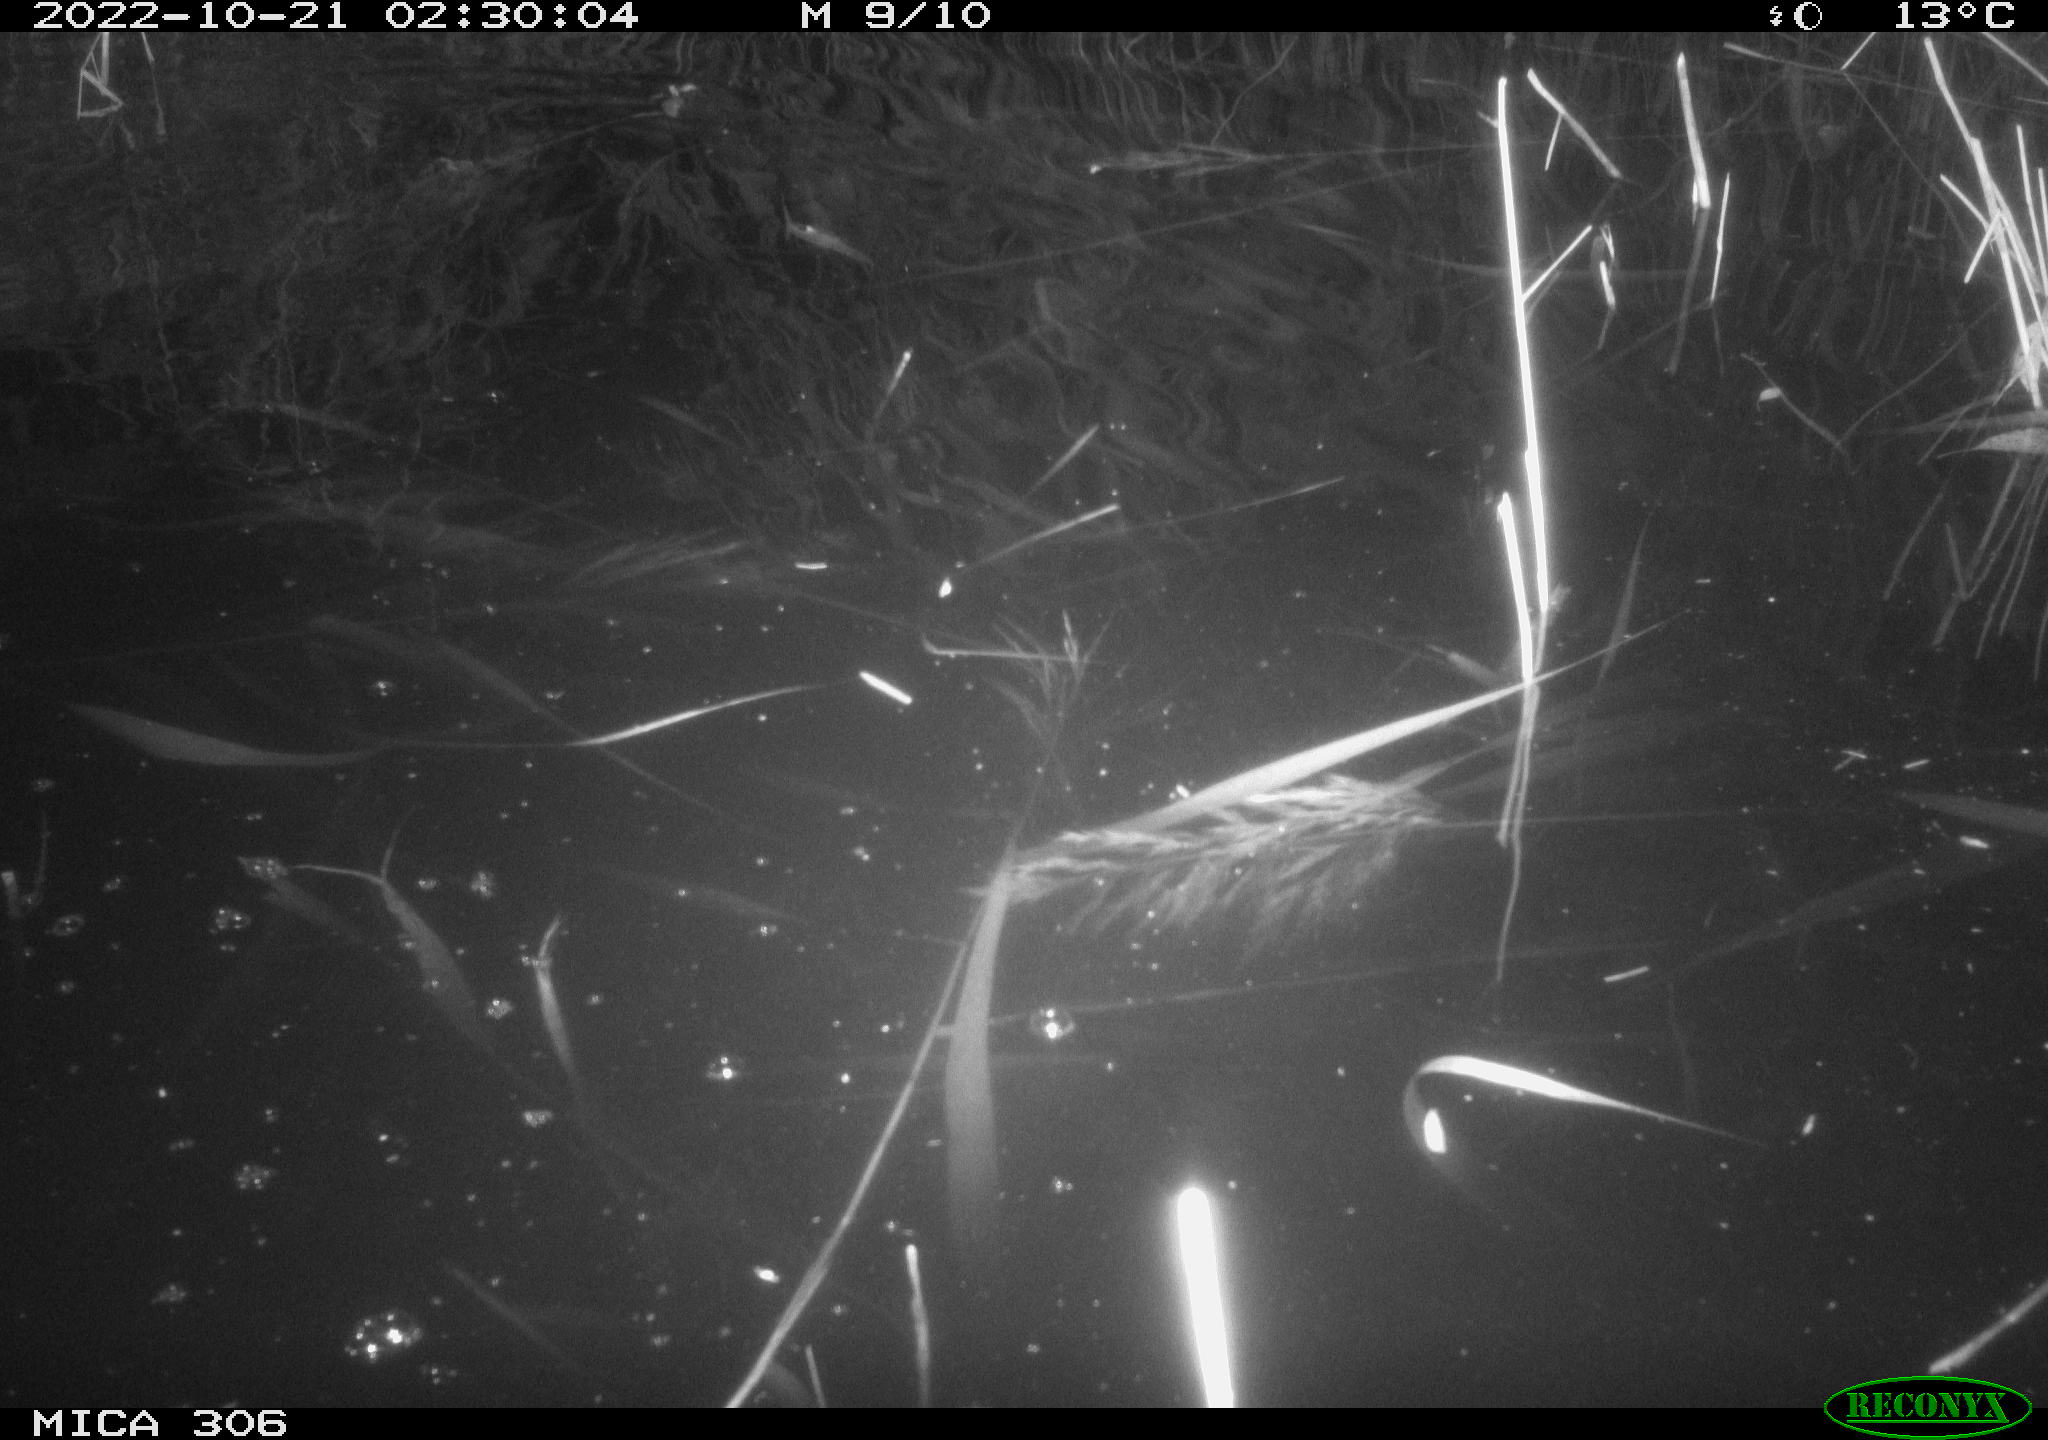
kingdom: Animalia
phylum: Chordata
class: Mammalia
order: Rodentia
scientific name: Rodentia
